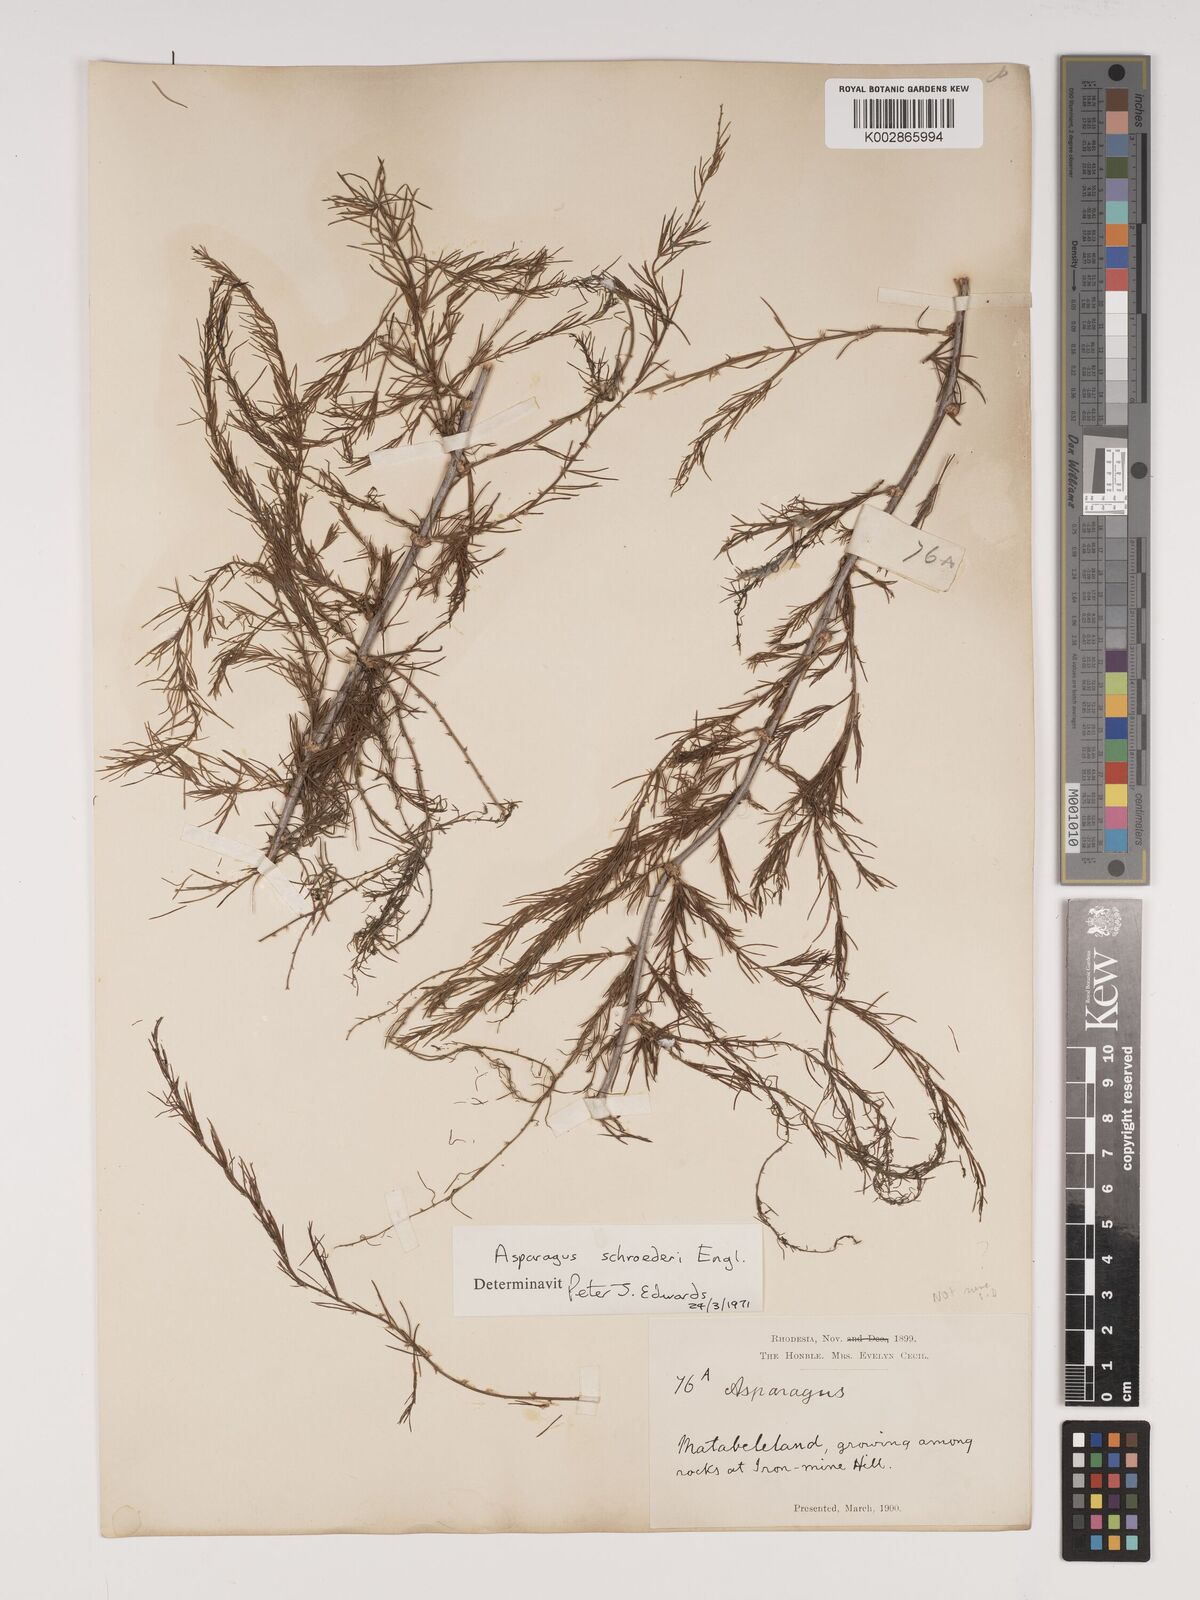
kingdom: Plantae
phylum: Tracheophyta
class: Liliopsida
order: Asparagales
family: Asparagaceae
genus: Asparagus
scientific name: Asparagus schroederi
